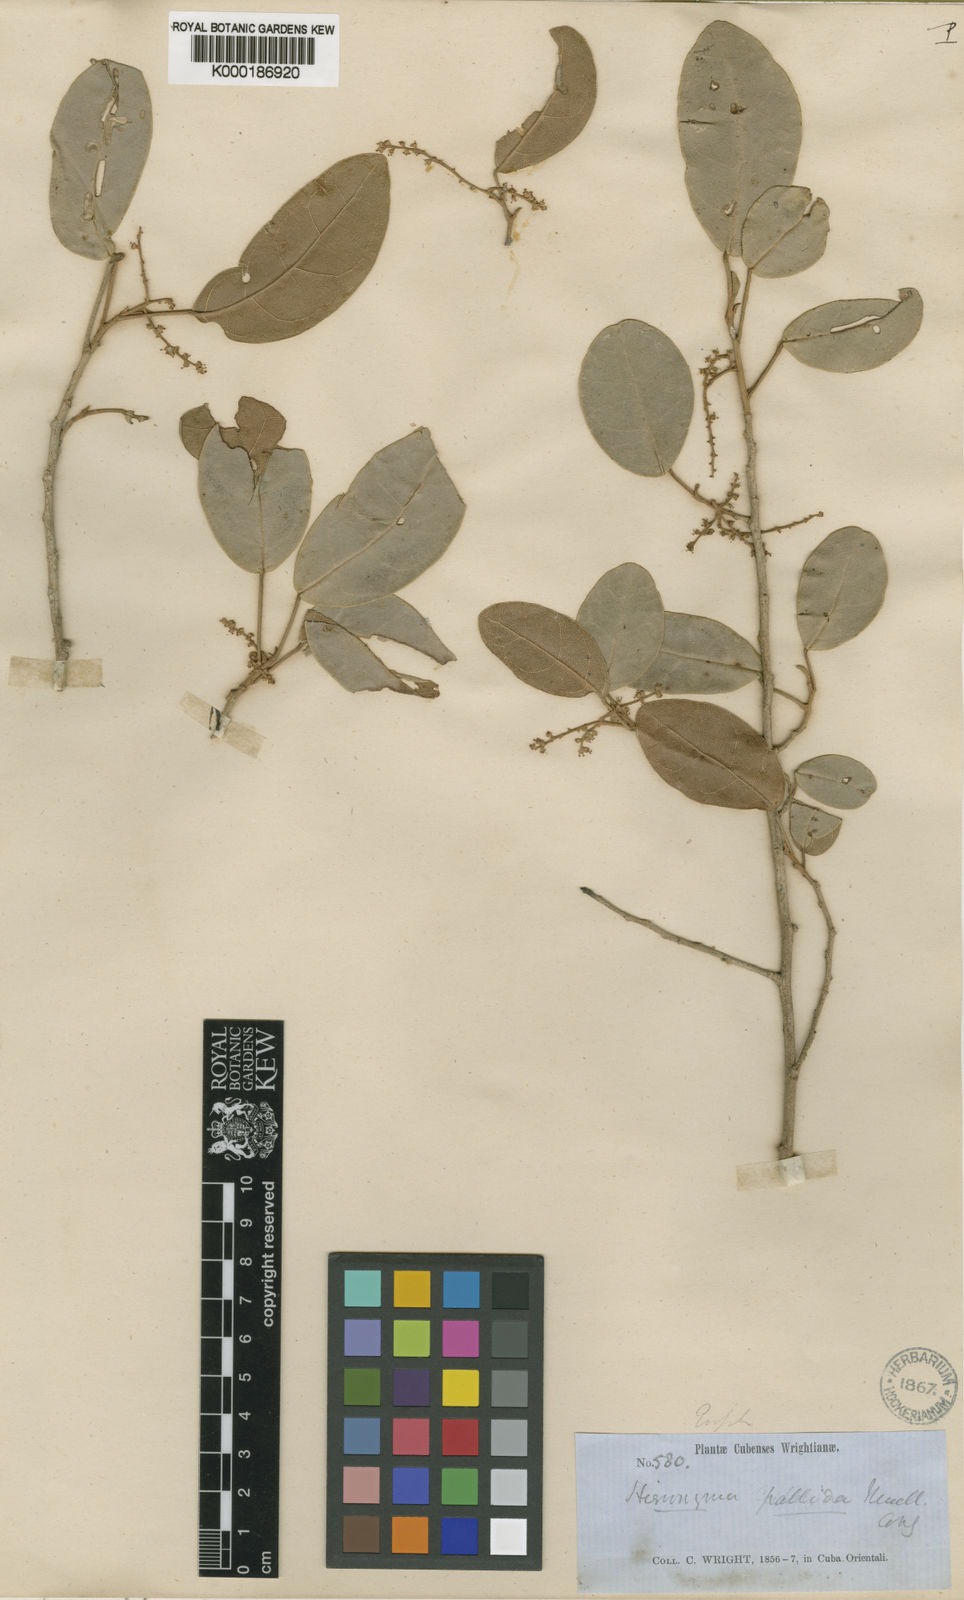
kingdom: Plantae
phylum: Tracheophyta
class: Magnoliopsida
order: Malpighiales
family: Phyllanthaceae
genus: Hieronyma
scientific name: Hieronyma cubana
